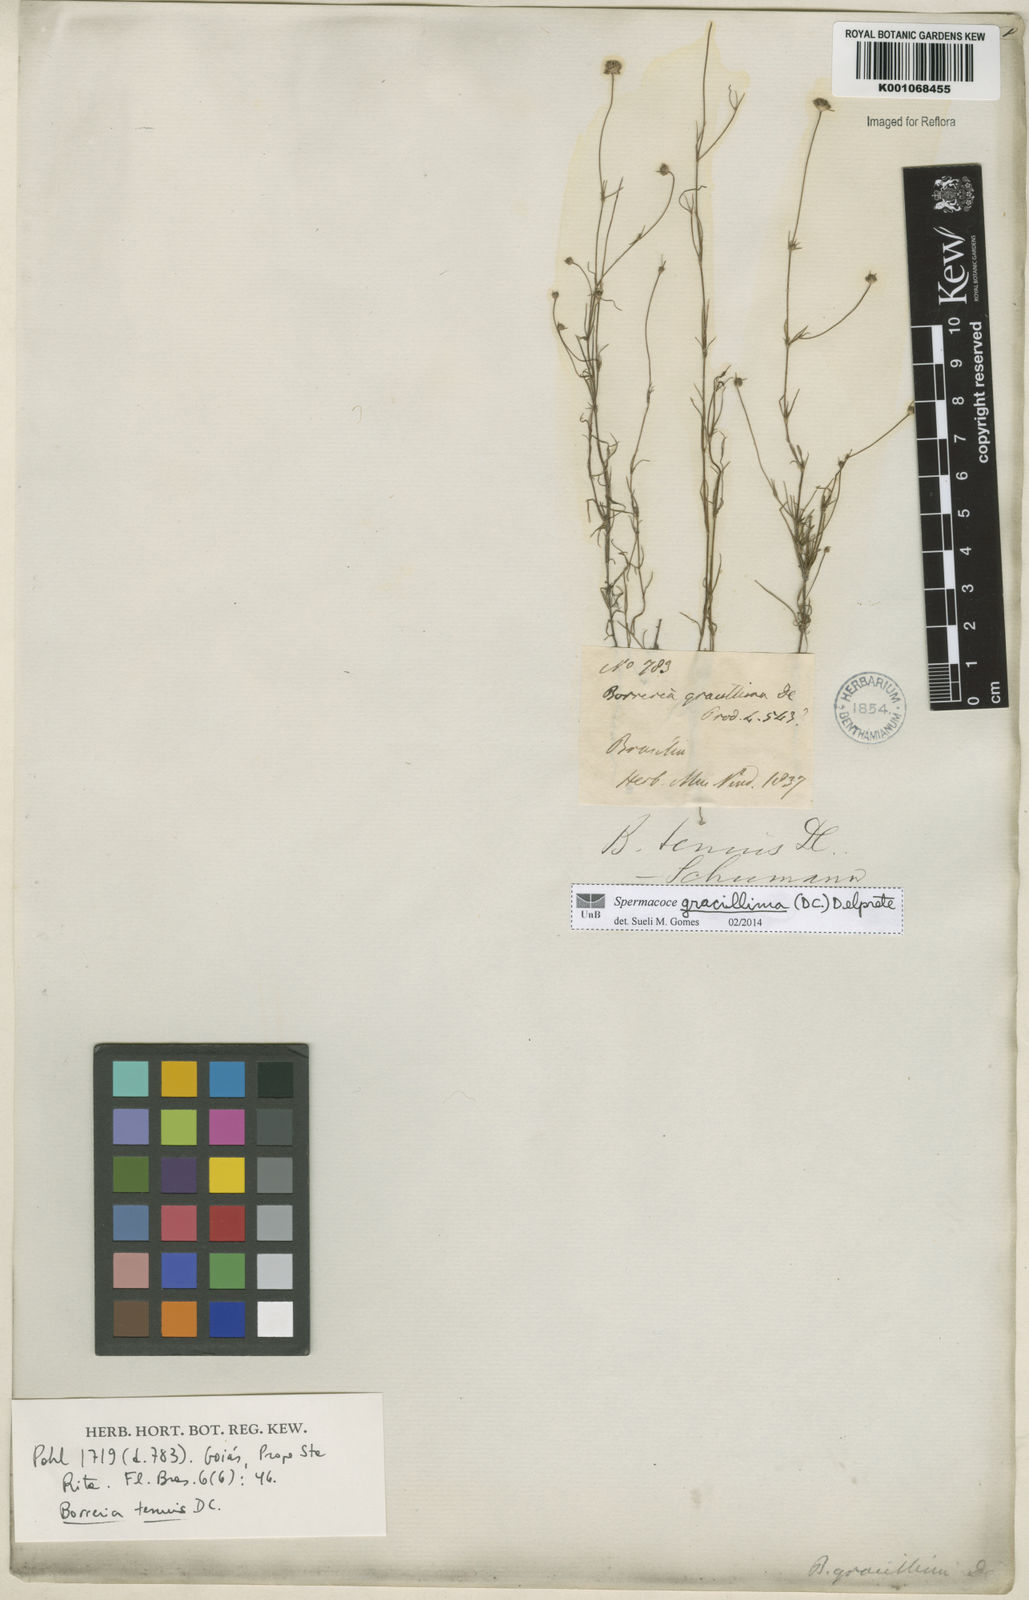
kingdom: Plantae
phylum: Tracheophyta
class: Magnoliopsida
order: Gentianales
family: Rubiaceae
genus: Spermacoce
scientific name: Spermacoce gracillima
